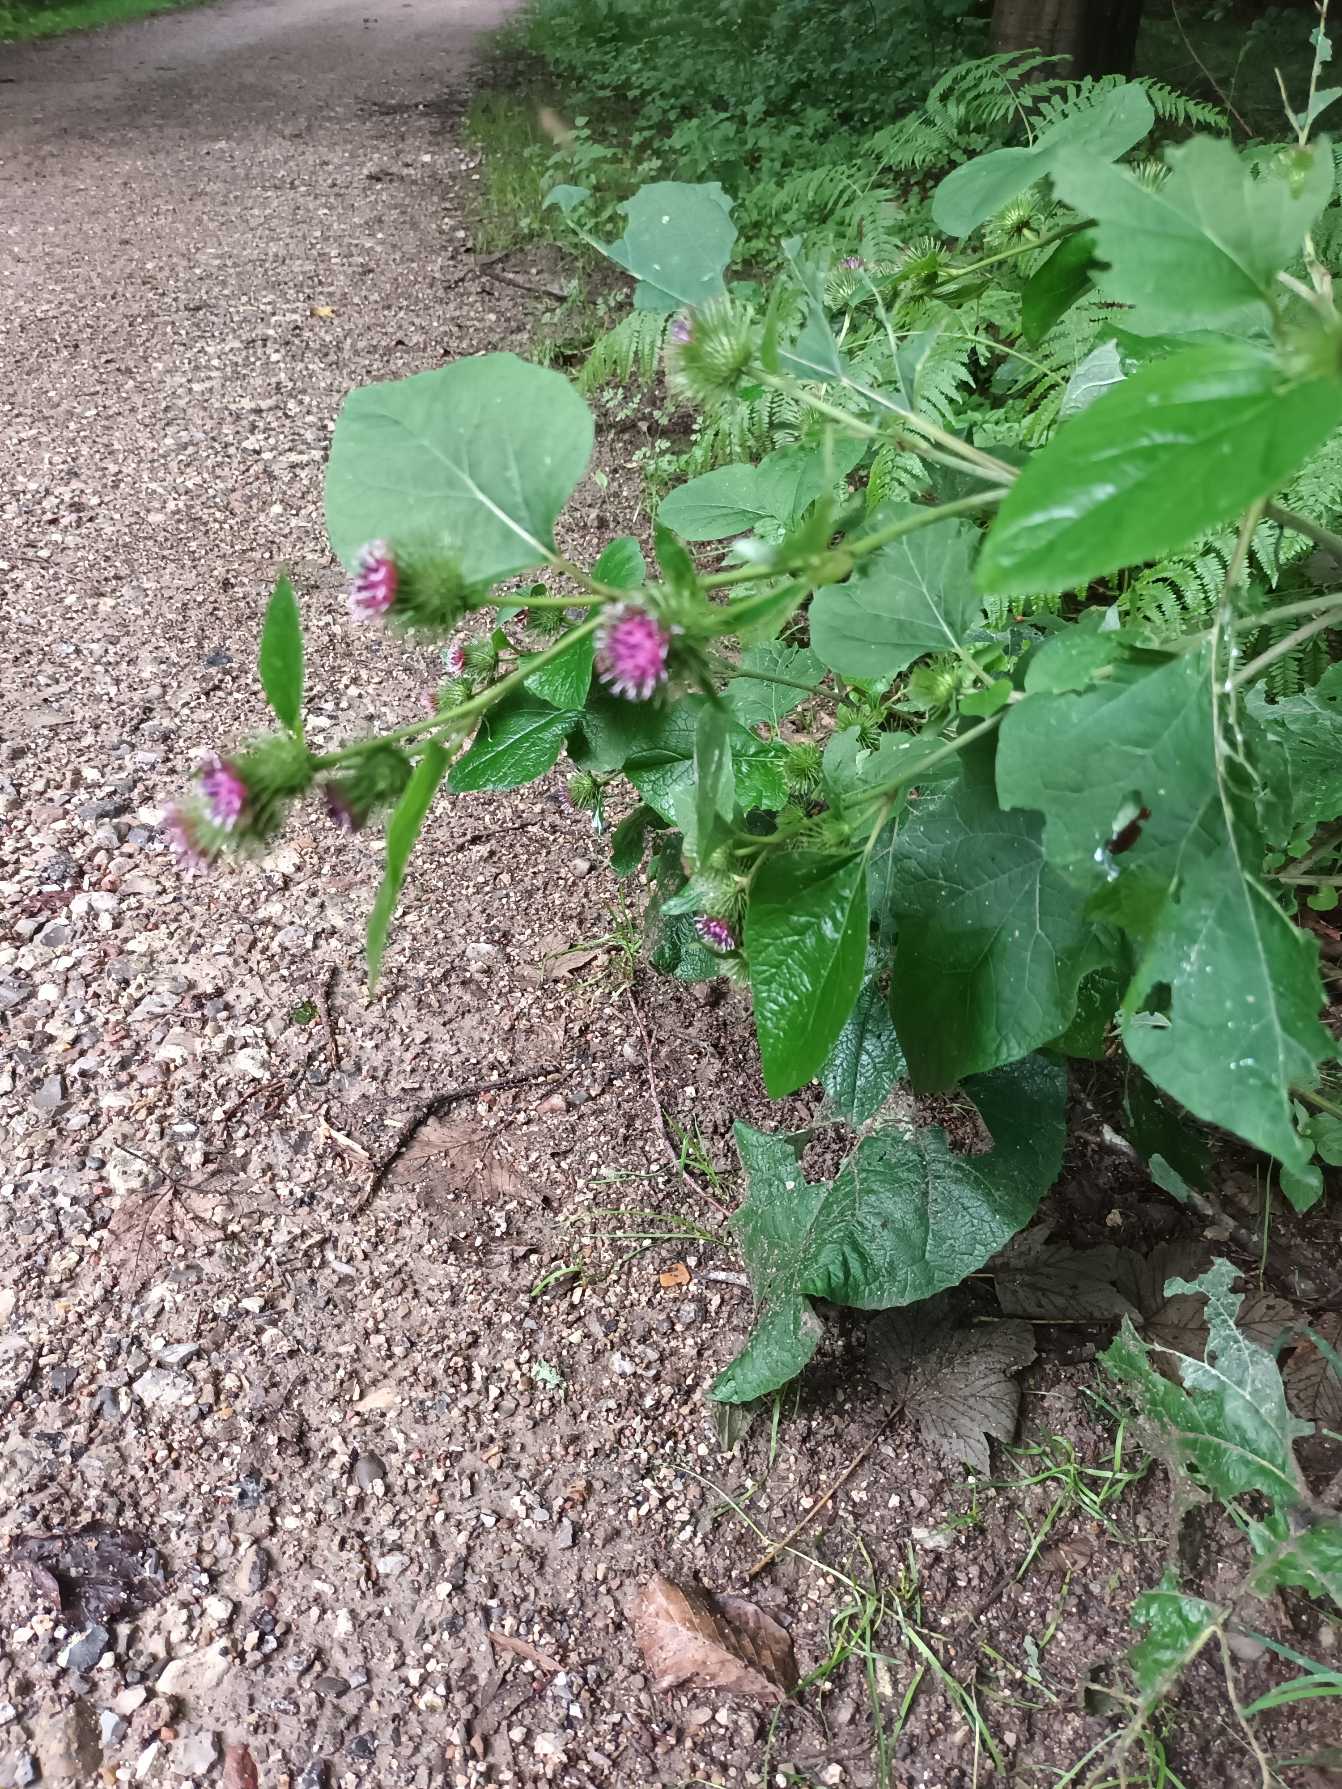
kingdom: Plantae
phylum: Tracheophyta
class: Magnoliopsida
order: Asterales
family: Asteraceae
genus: Arctium
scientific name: Arctium nemorosum
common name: Skov-burre
